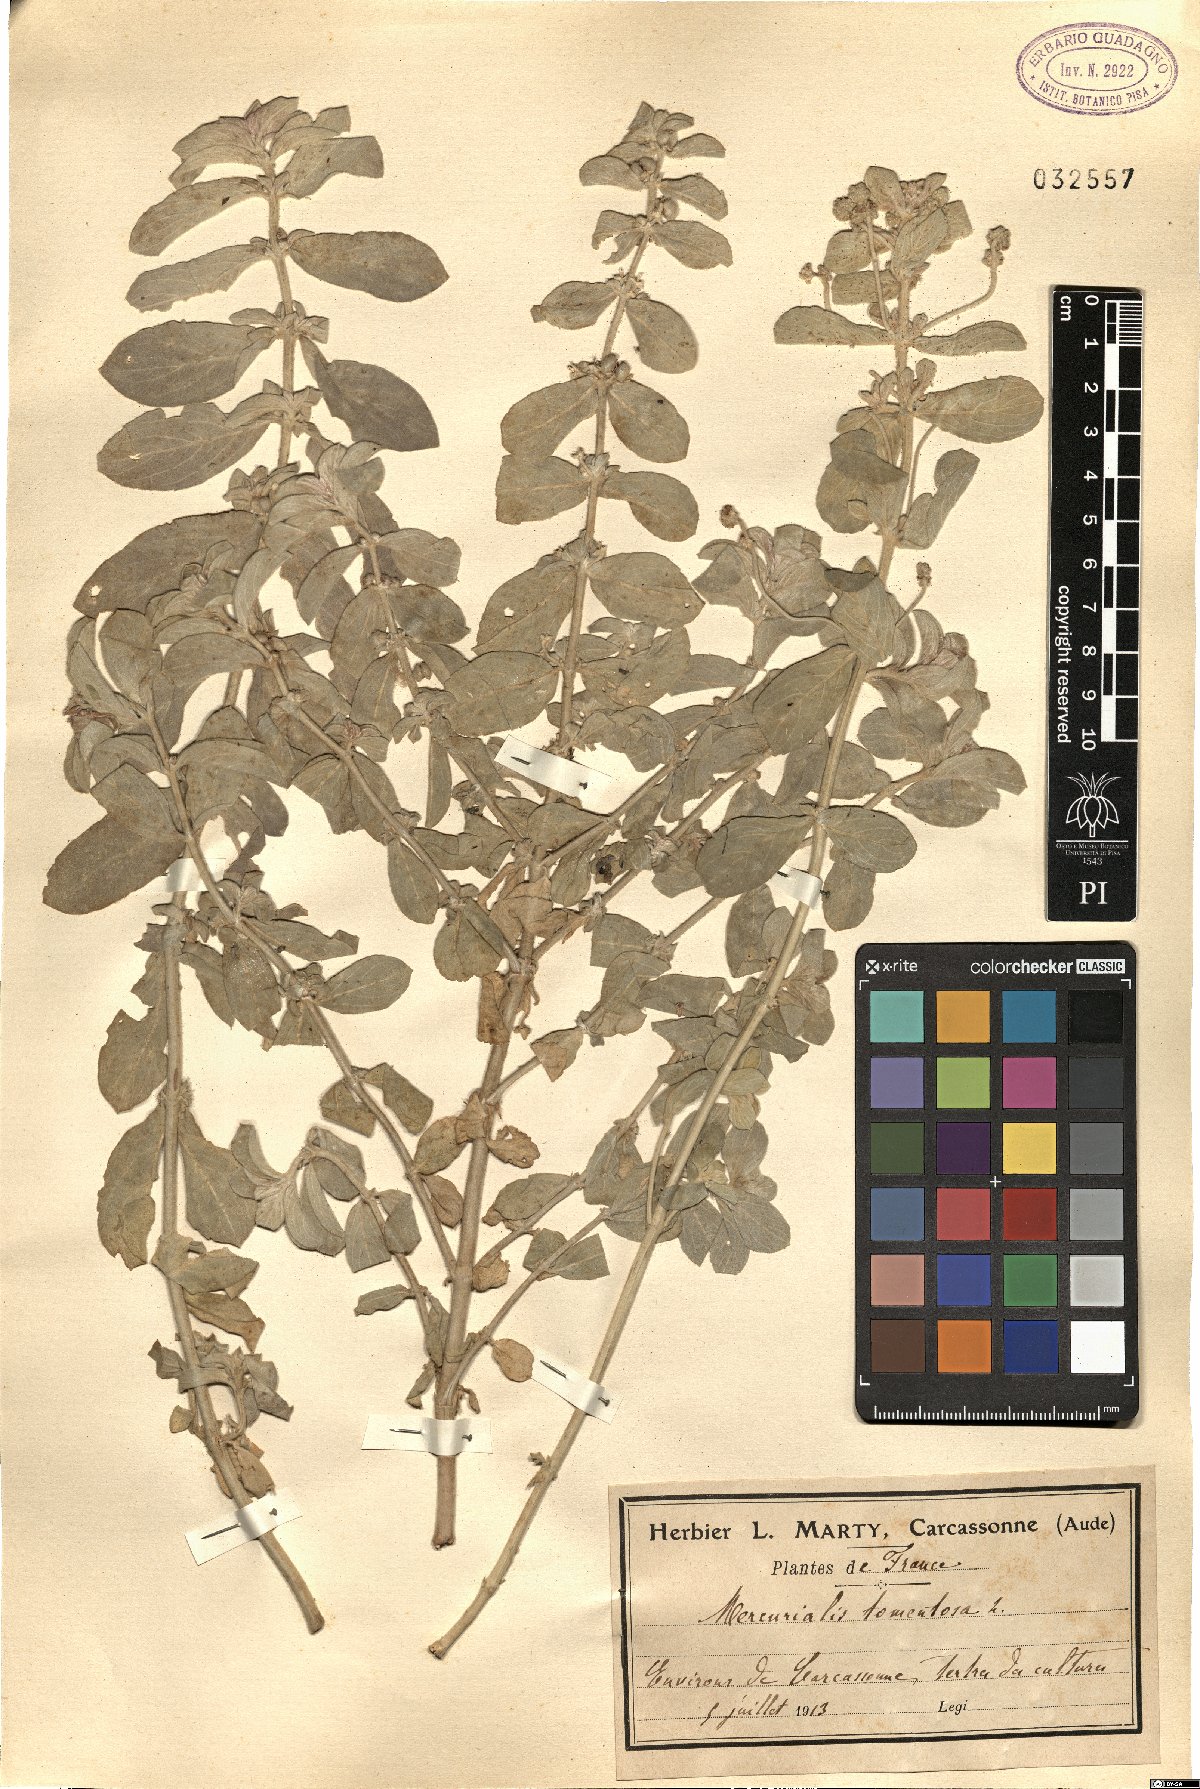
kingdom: Plantae
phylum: Tracheophyta
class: Magnoliopsida
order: Malpighiales
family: Euphorbiaceae
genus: Mercurialis
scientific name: Mercurialis tomentosa
